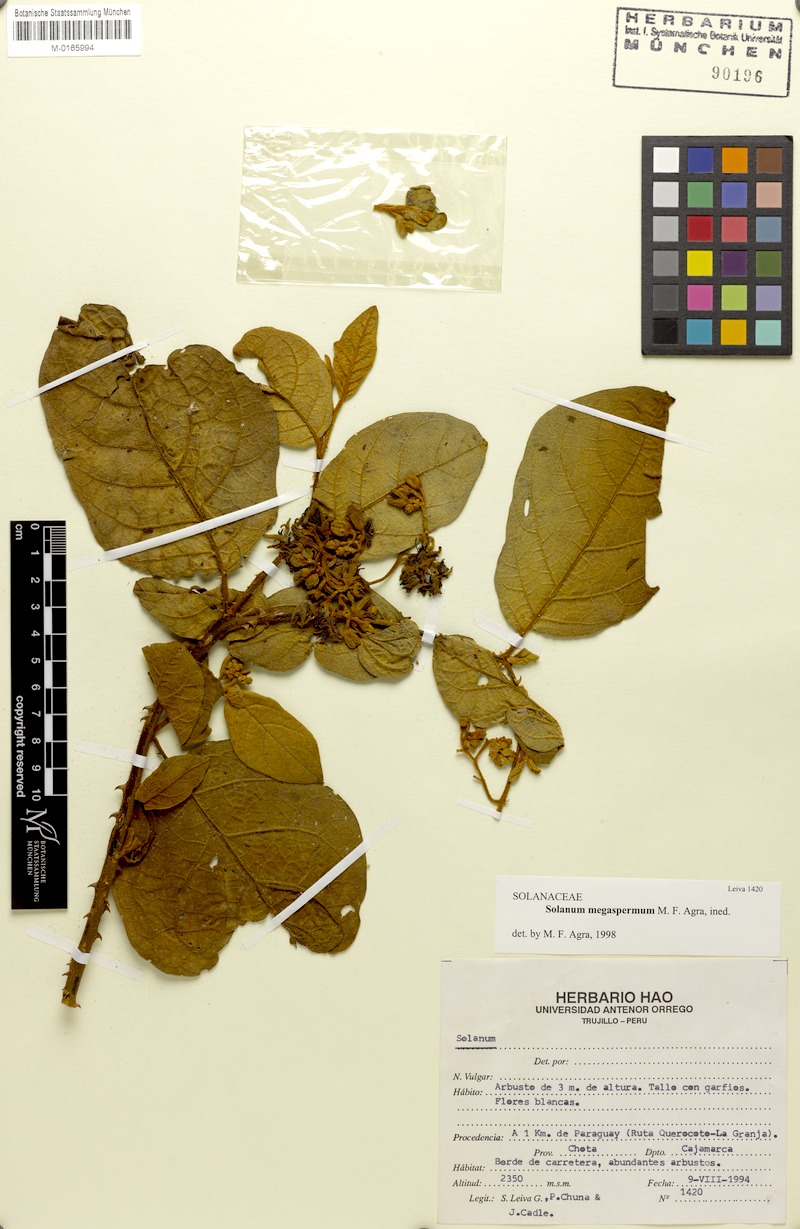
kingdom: Plantae
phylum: Tracheophyta
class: Magnoliopsida
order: Solanales
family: Solanaceae
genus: Solanum
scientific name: Solanum megaspermum
